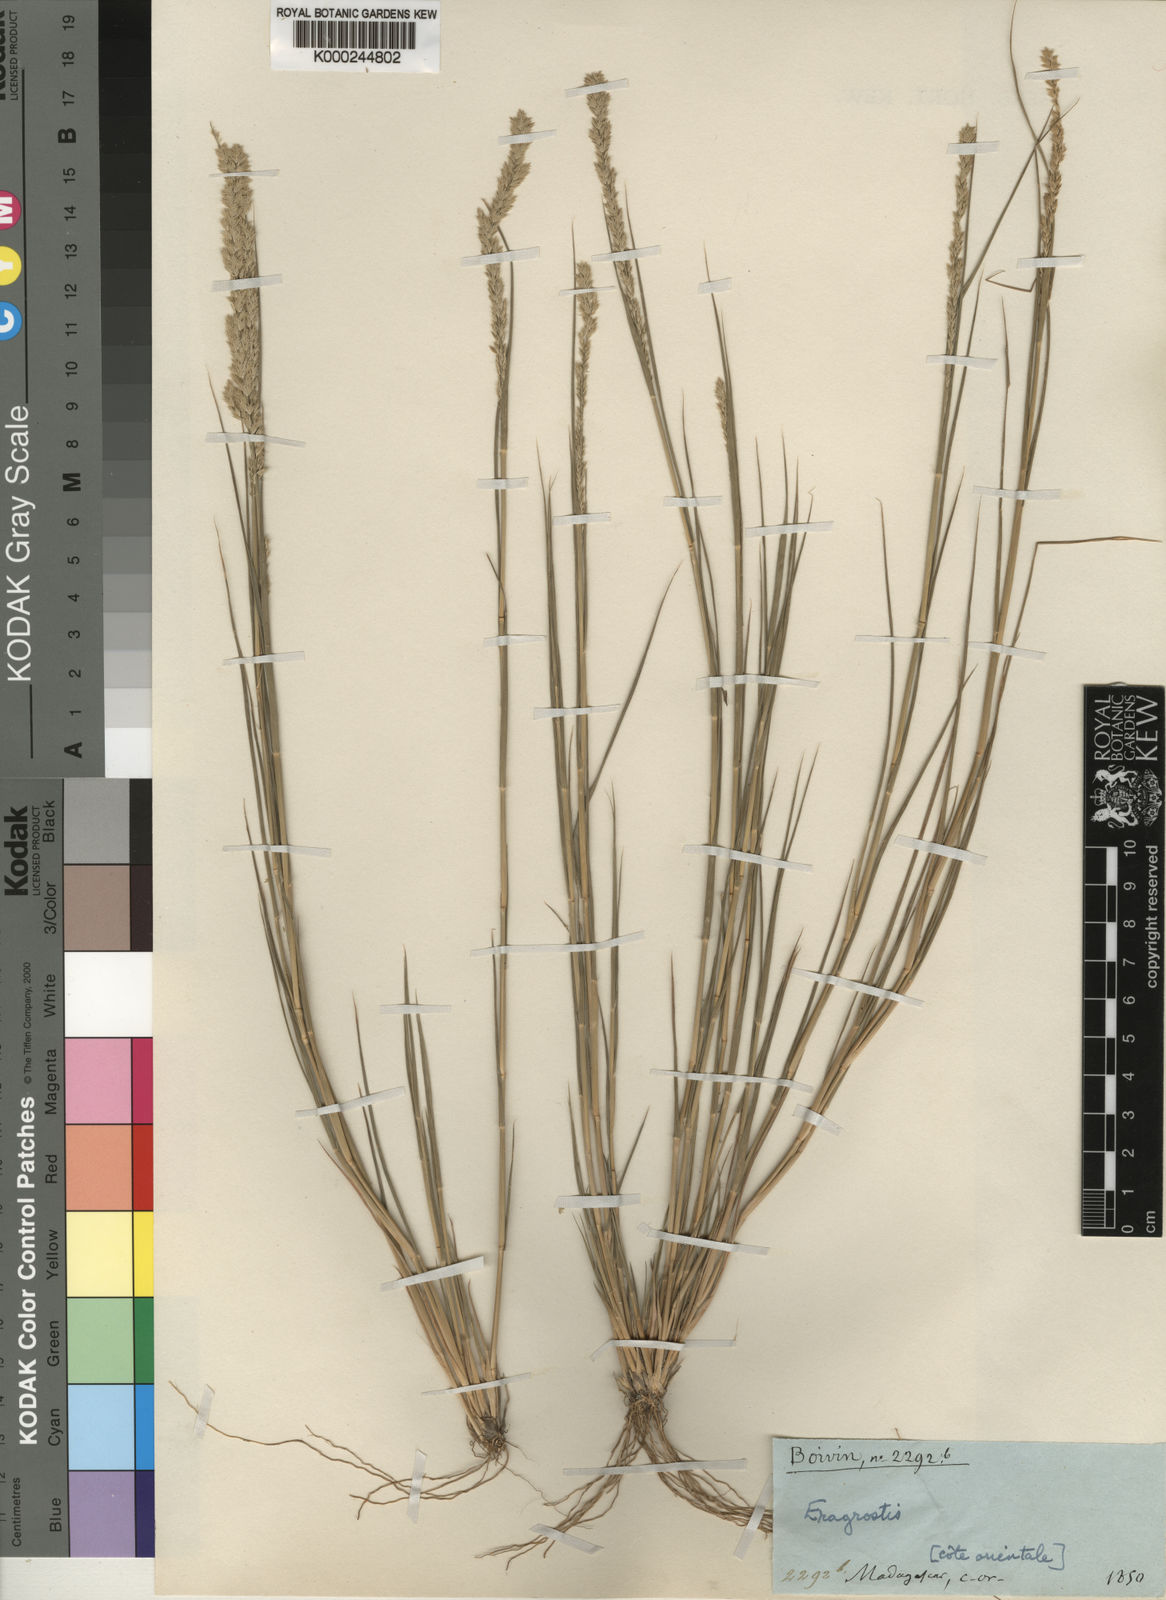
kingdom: Plantae
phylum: Tracheophyta
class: Liliopsida
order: Poales
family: Poaceae
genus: Eragrostis
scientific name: Eragrostis rigida
